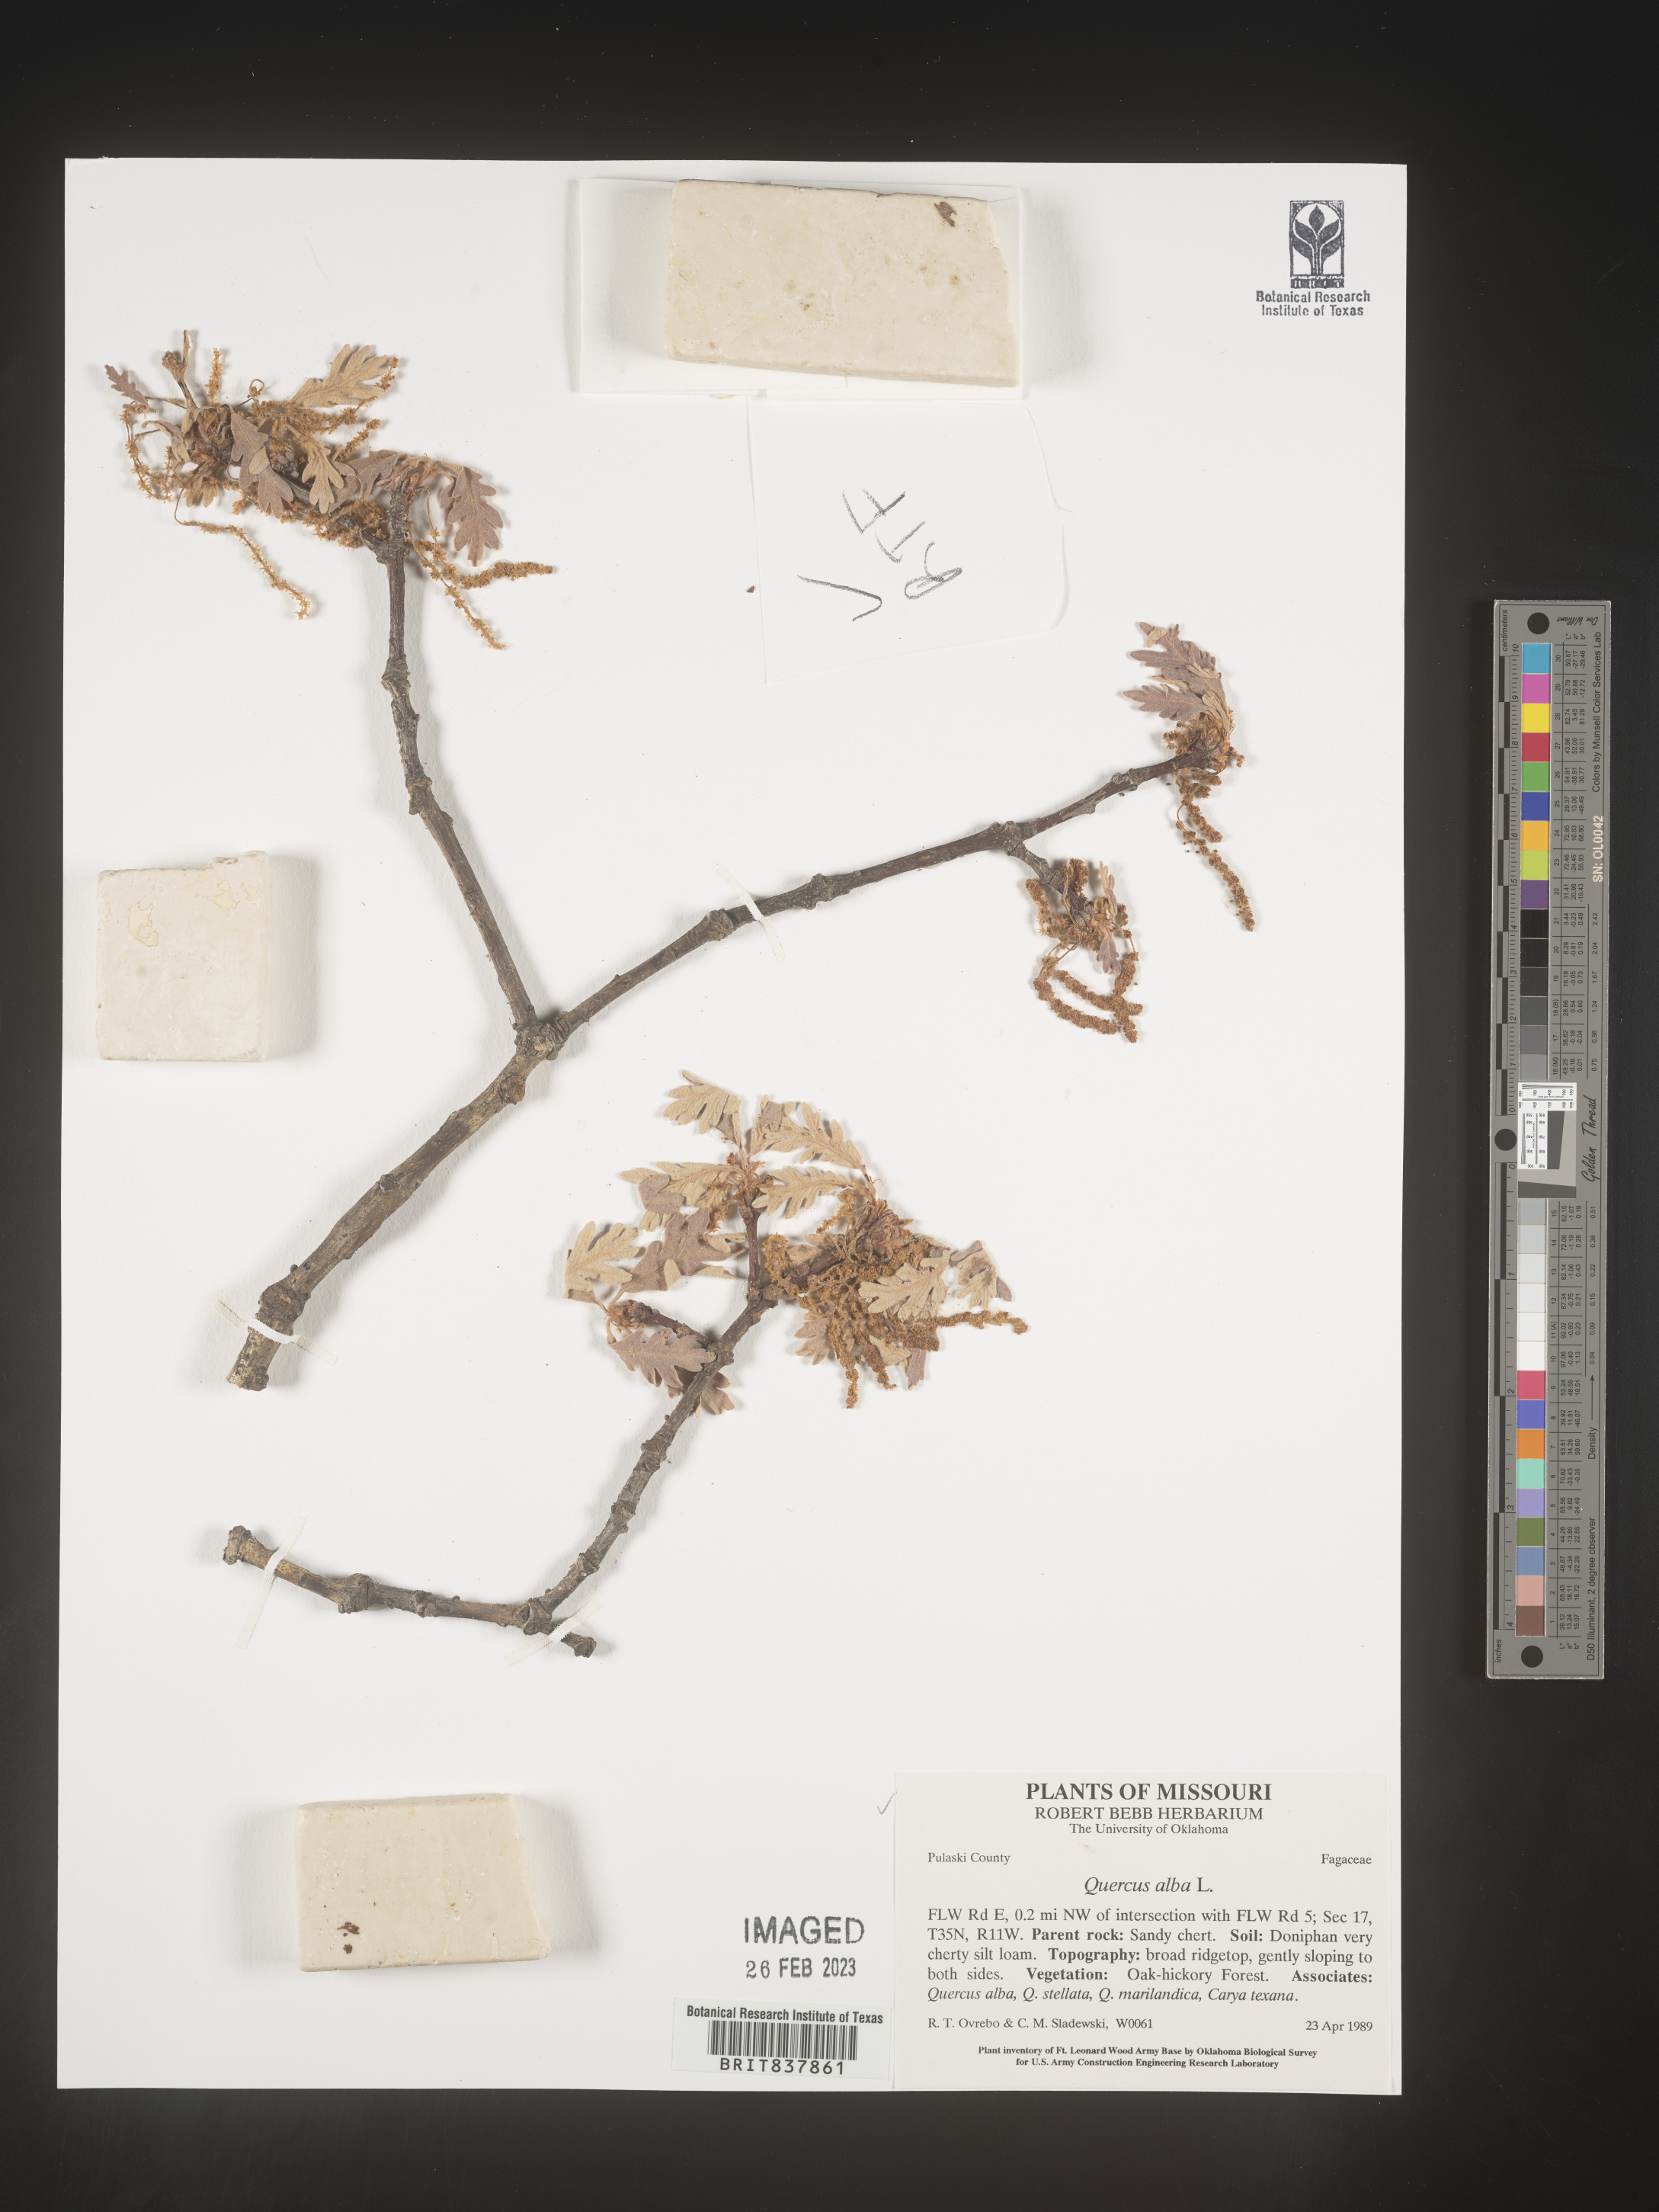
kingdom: Plantae
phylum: Tracheophyta
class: Magnoliopsida
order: Fagales
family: Fagaceae
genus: Quercus
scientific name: Quercus alba
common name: White oak
